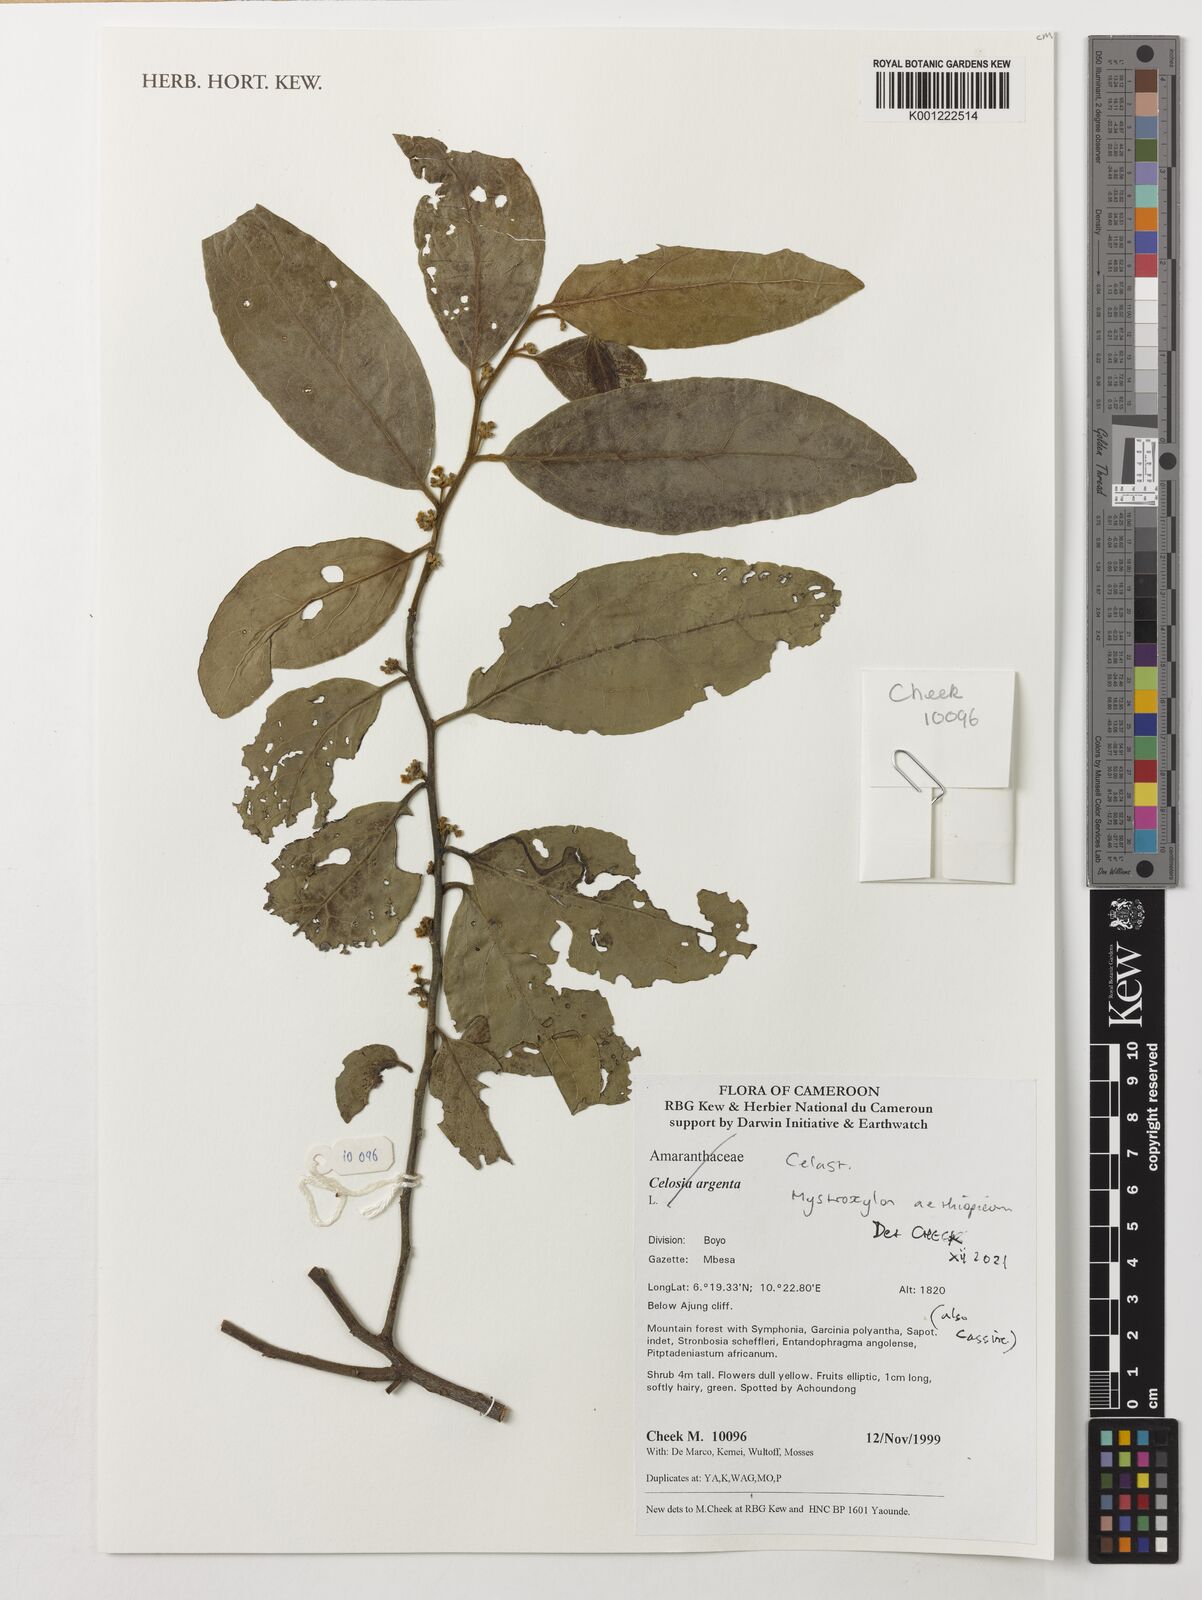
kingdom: Plantae
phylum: Tracheophyta
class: Magnoliopsida
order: Celastrales
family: Celastraceae
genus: Mystroxylon
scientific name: Mystroxylon aethiopicum
